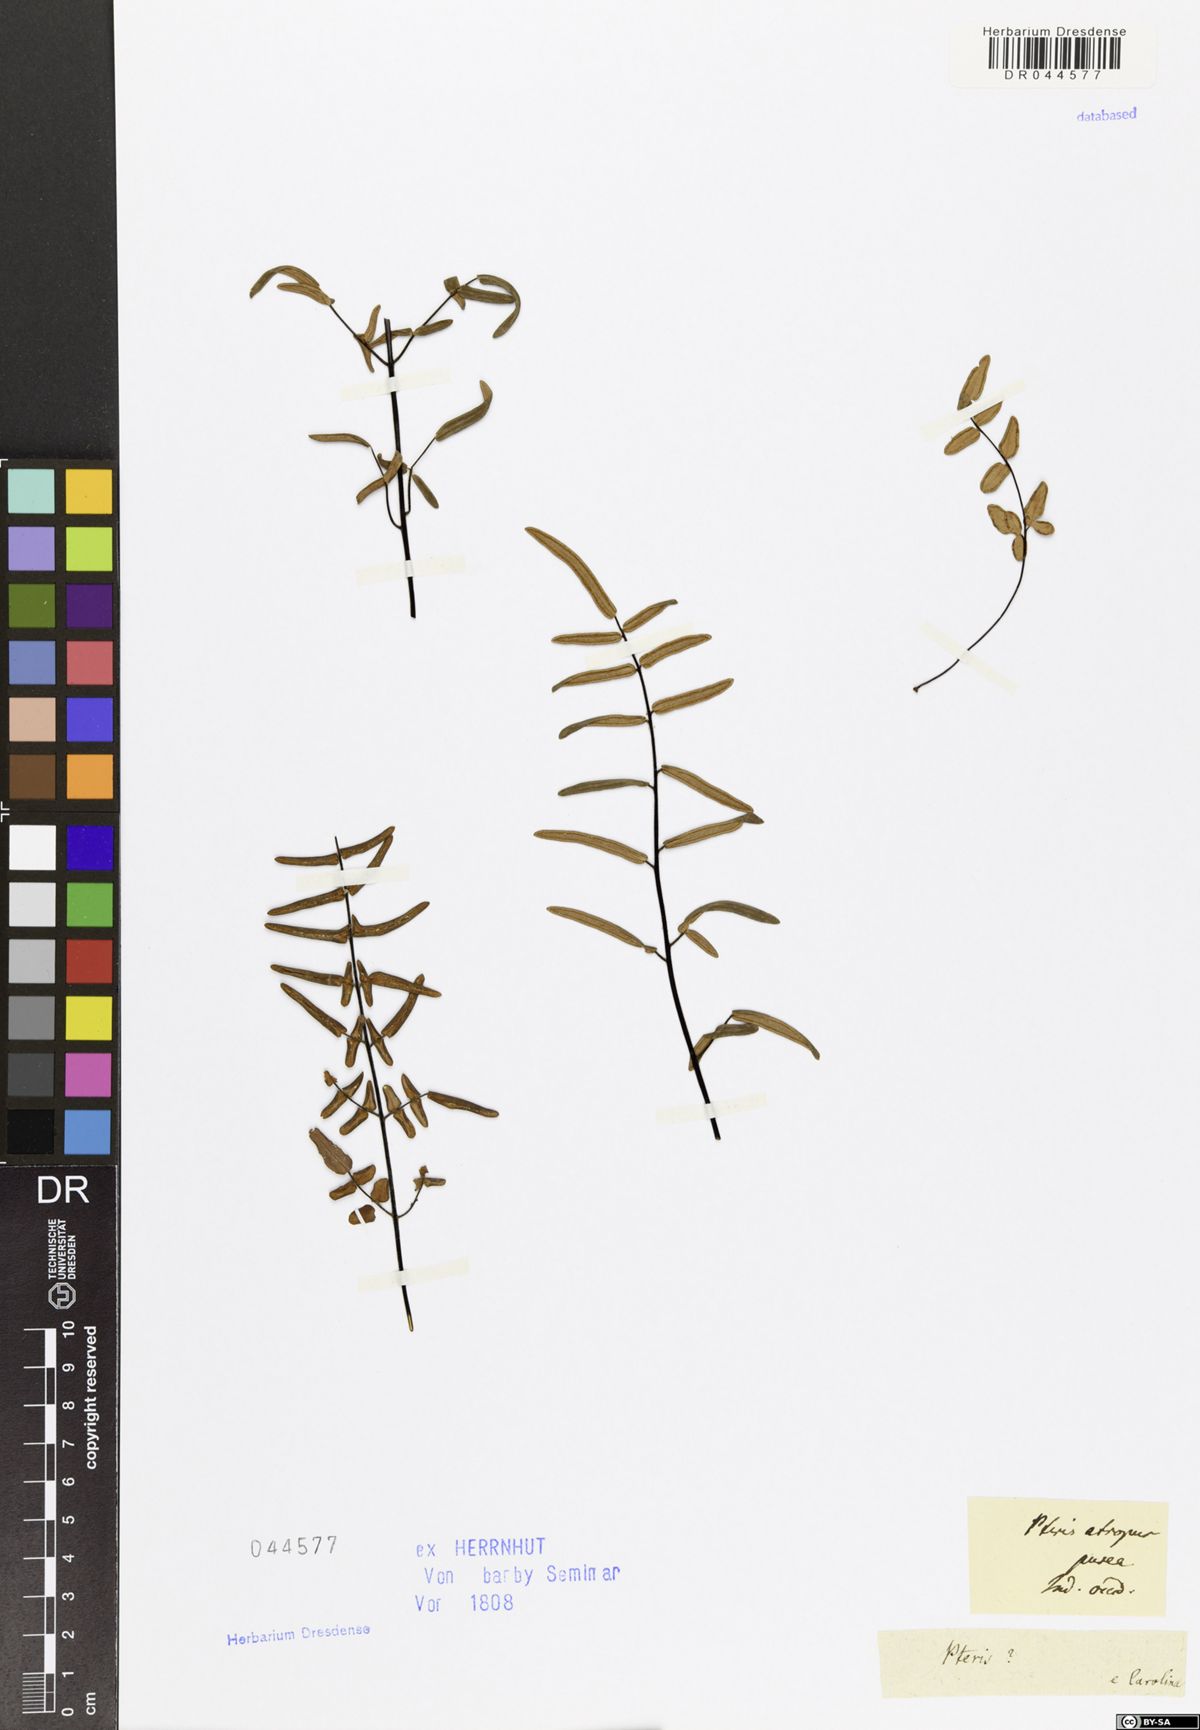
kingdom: Plantae
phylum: Tracheophyta
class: Polypodiopsida
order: Polypodiales
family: Pteridaceae
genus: Pellaea
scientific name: Pellaea atropurpurea
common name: Hairy cliffbrake
